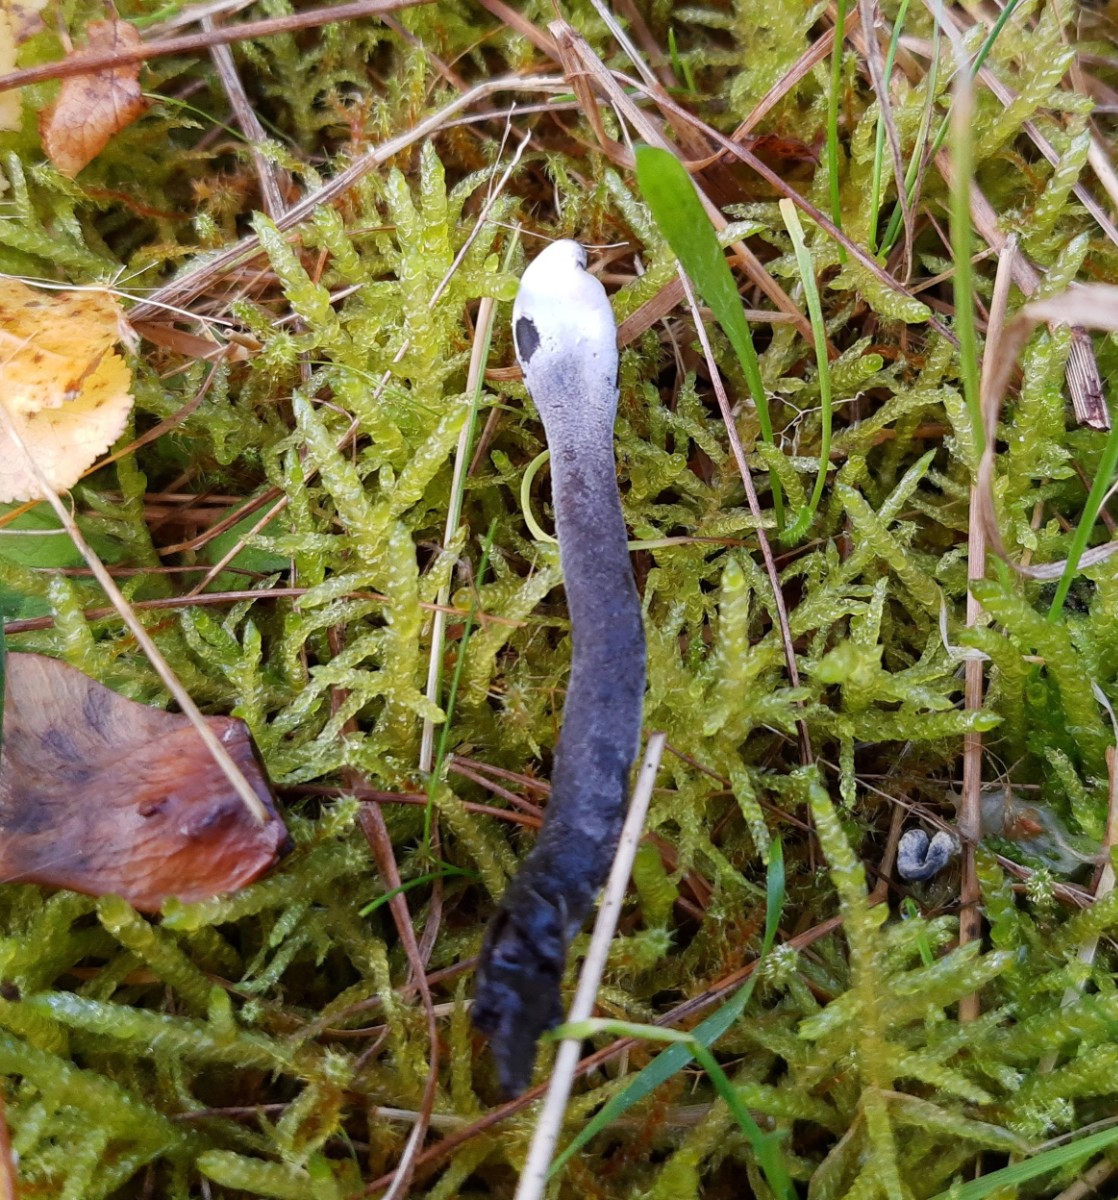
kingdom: Fungi
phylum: Ascomycota
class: Sordariomycetes
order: Hypocreales
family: Hypocreaceae
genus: Hypomyces
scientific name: Hypomyces papulasporae
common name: jordtunge-snylteskorpe
